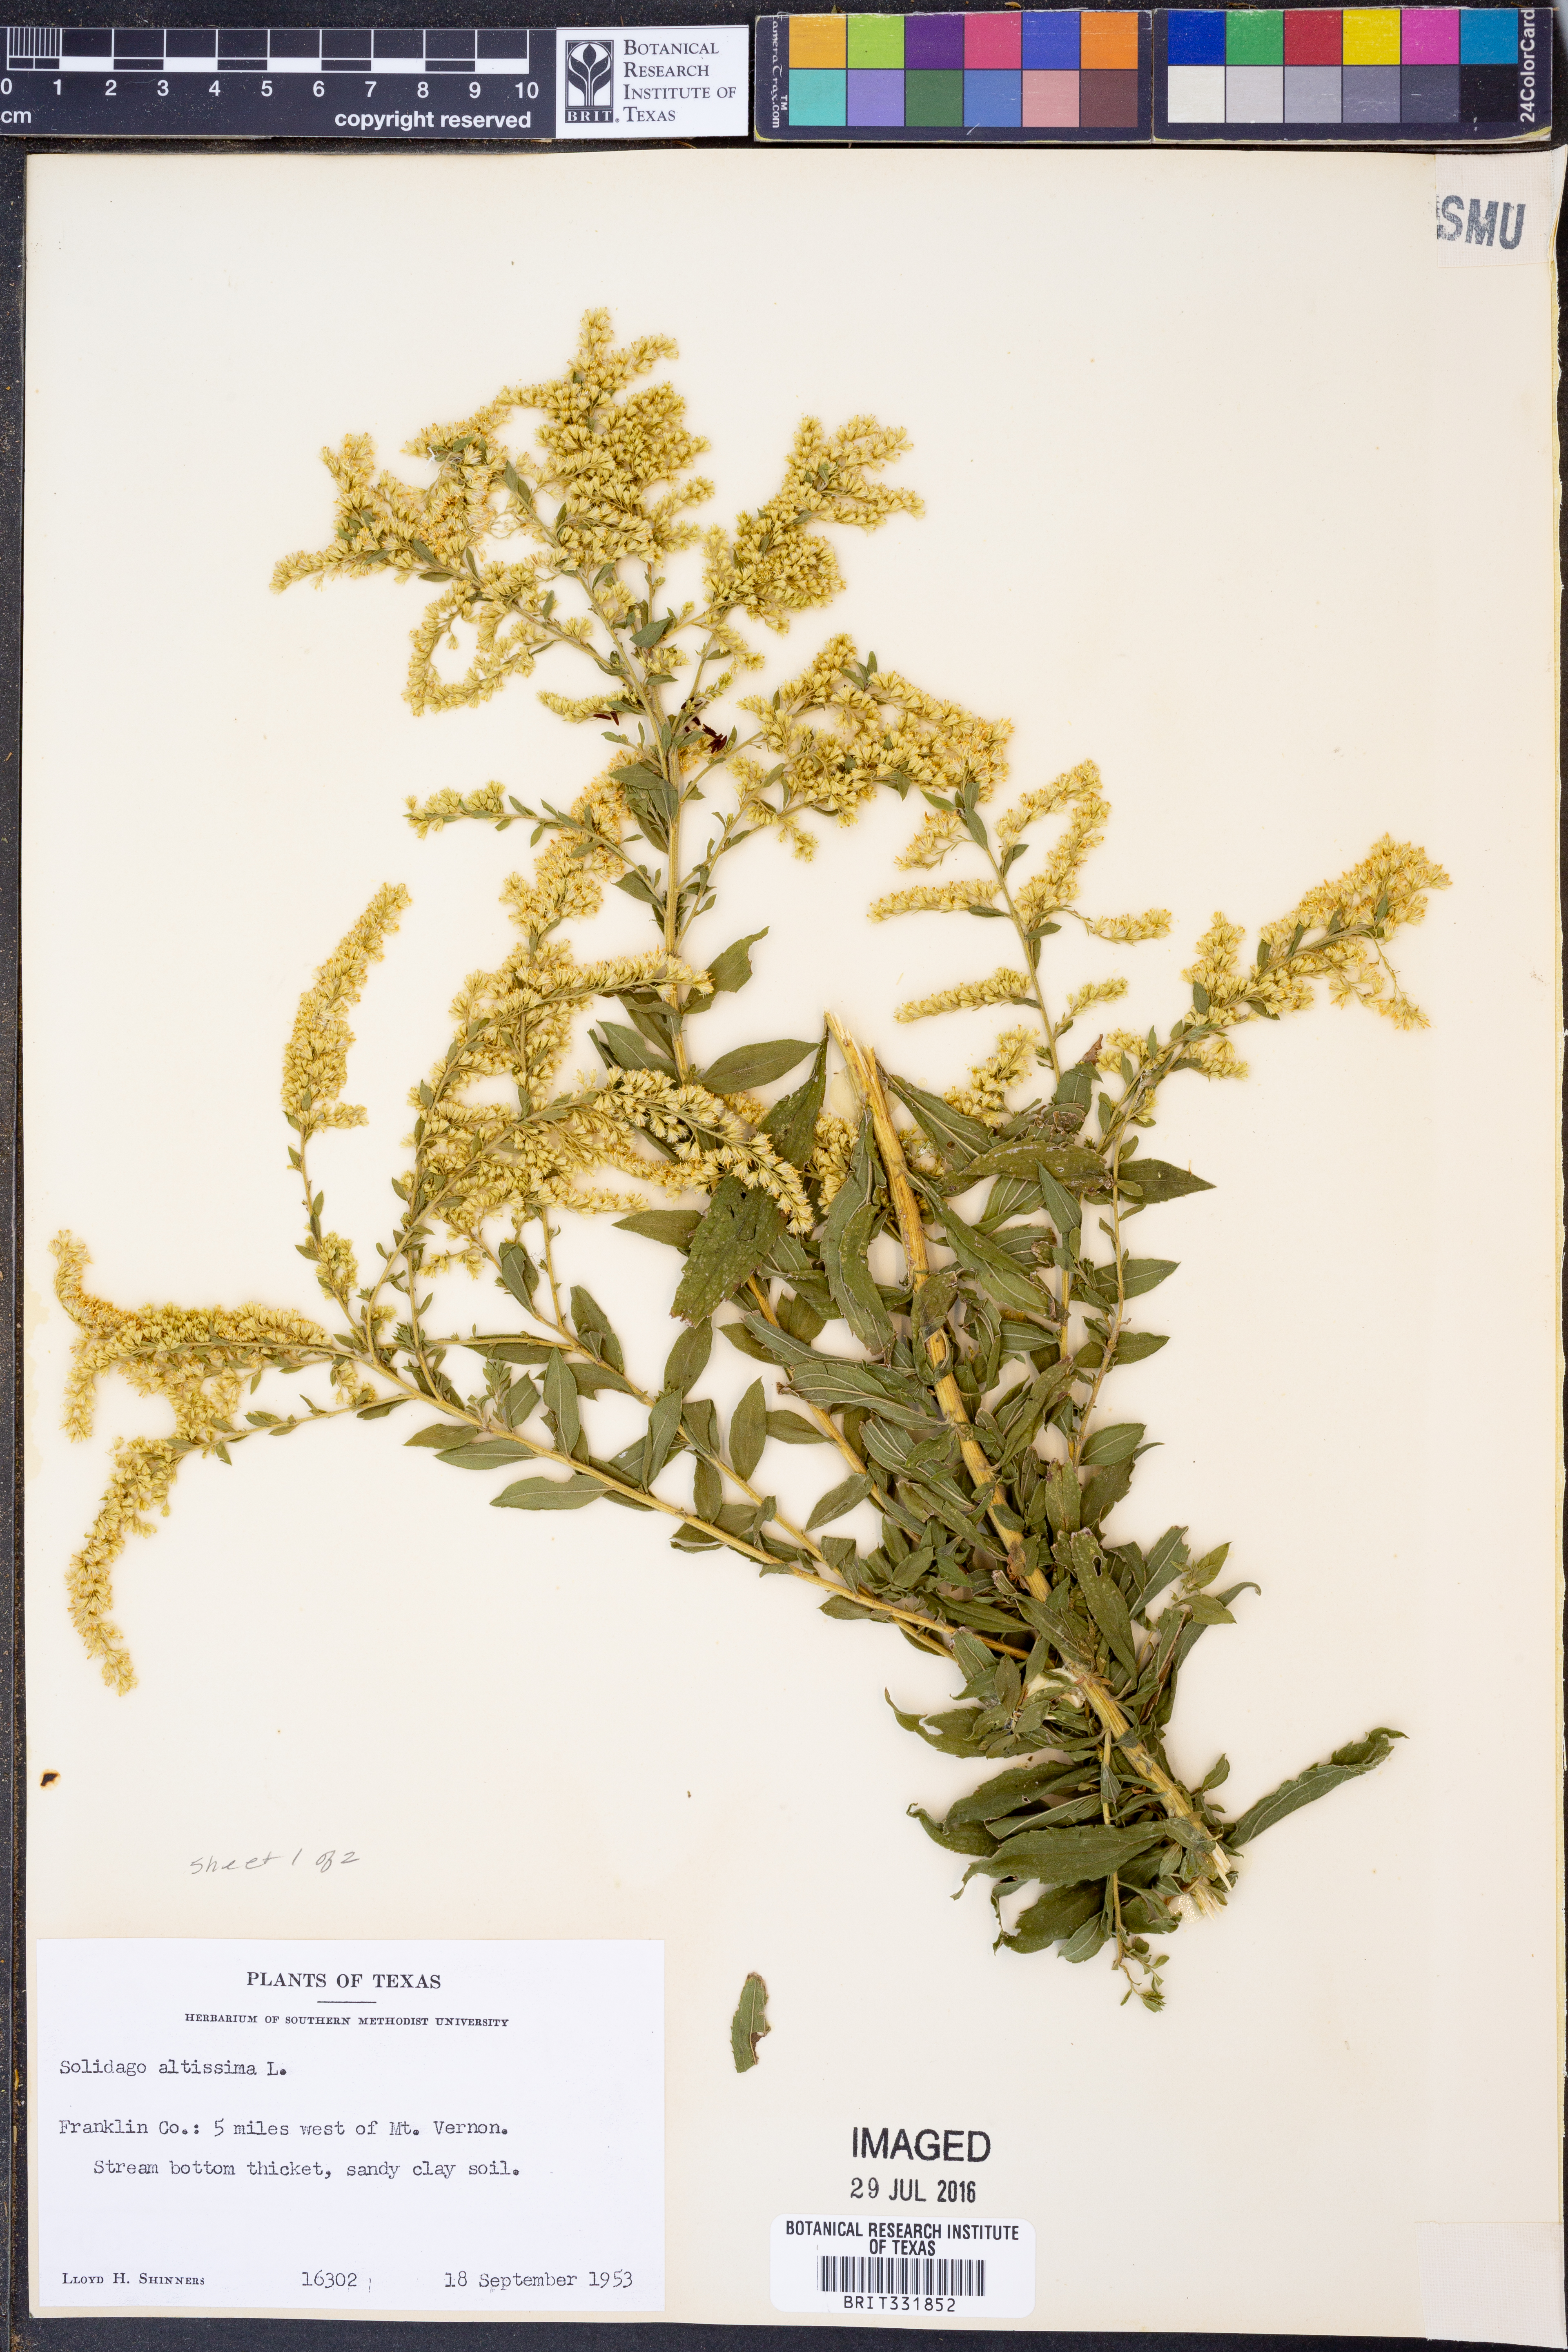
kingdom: Plantae
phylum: Tracheophyta
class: Magnoliopsida
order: Asterales
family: Asteraceae
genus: Solidago
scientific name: Solidago altissima
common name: Late goldenrod
